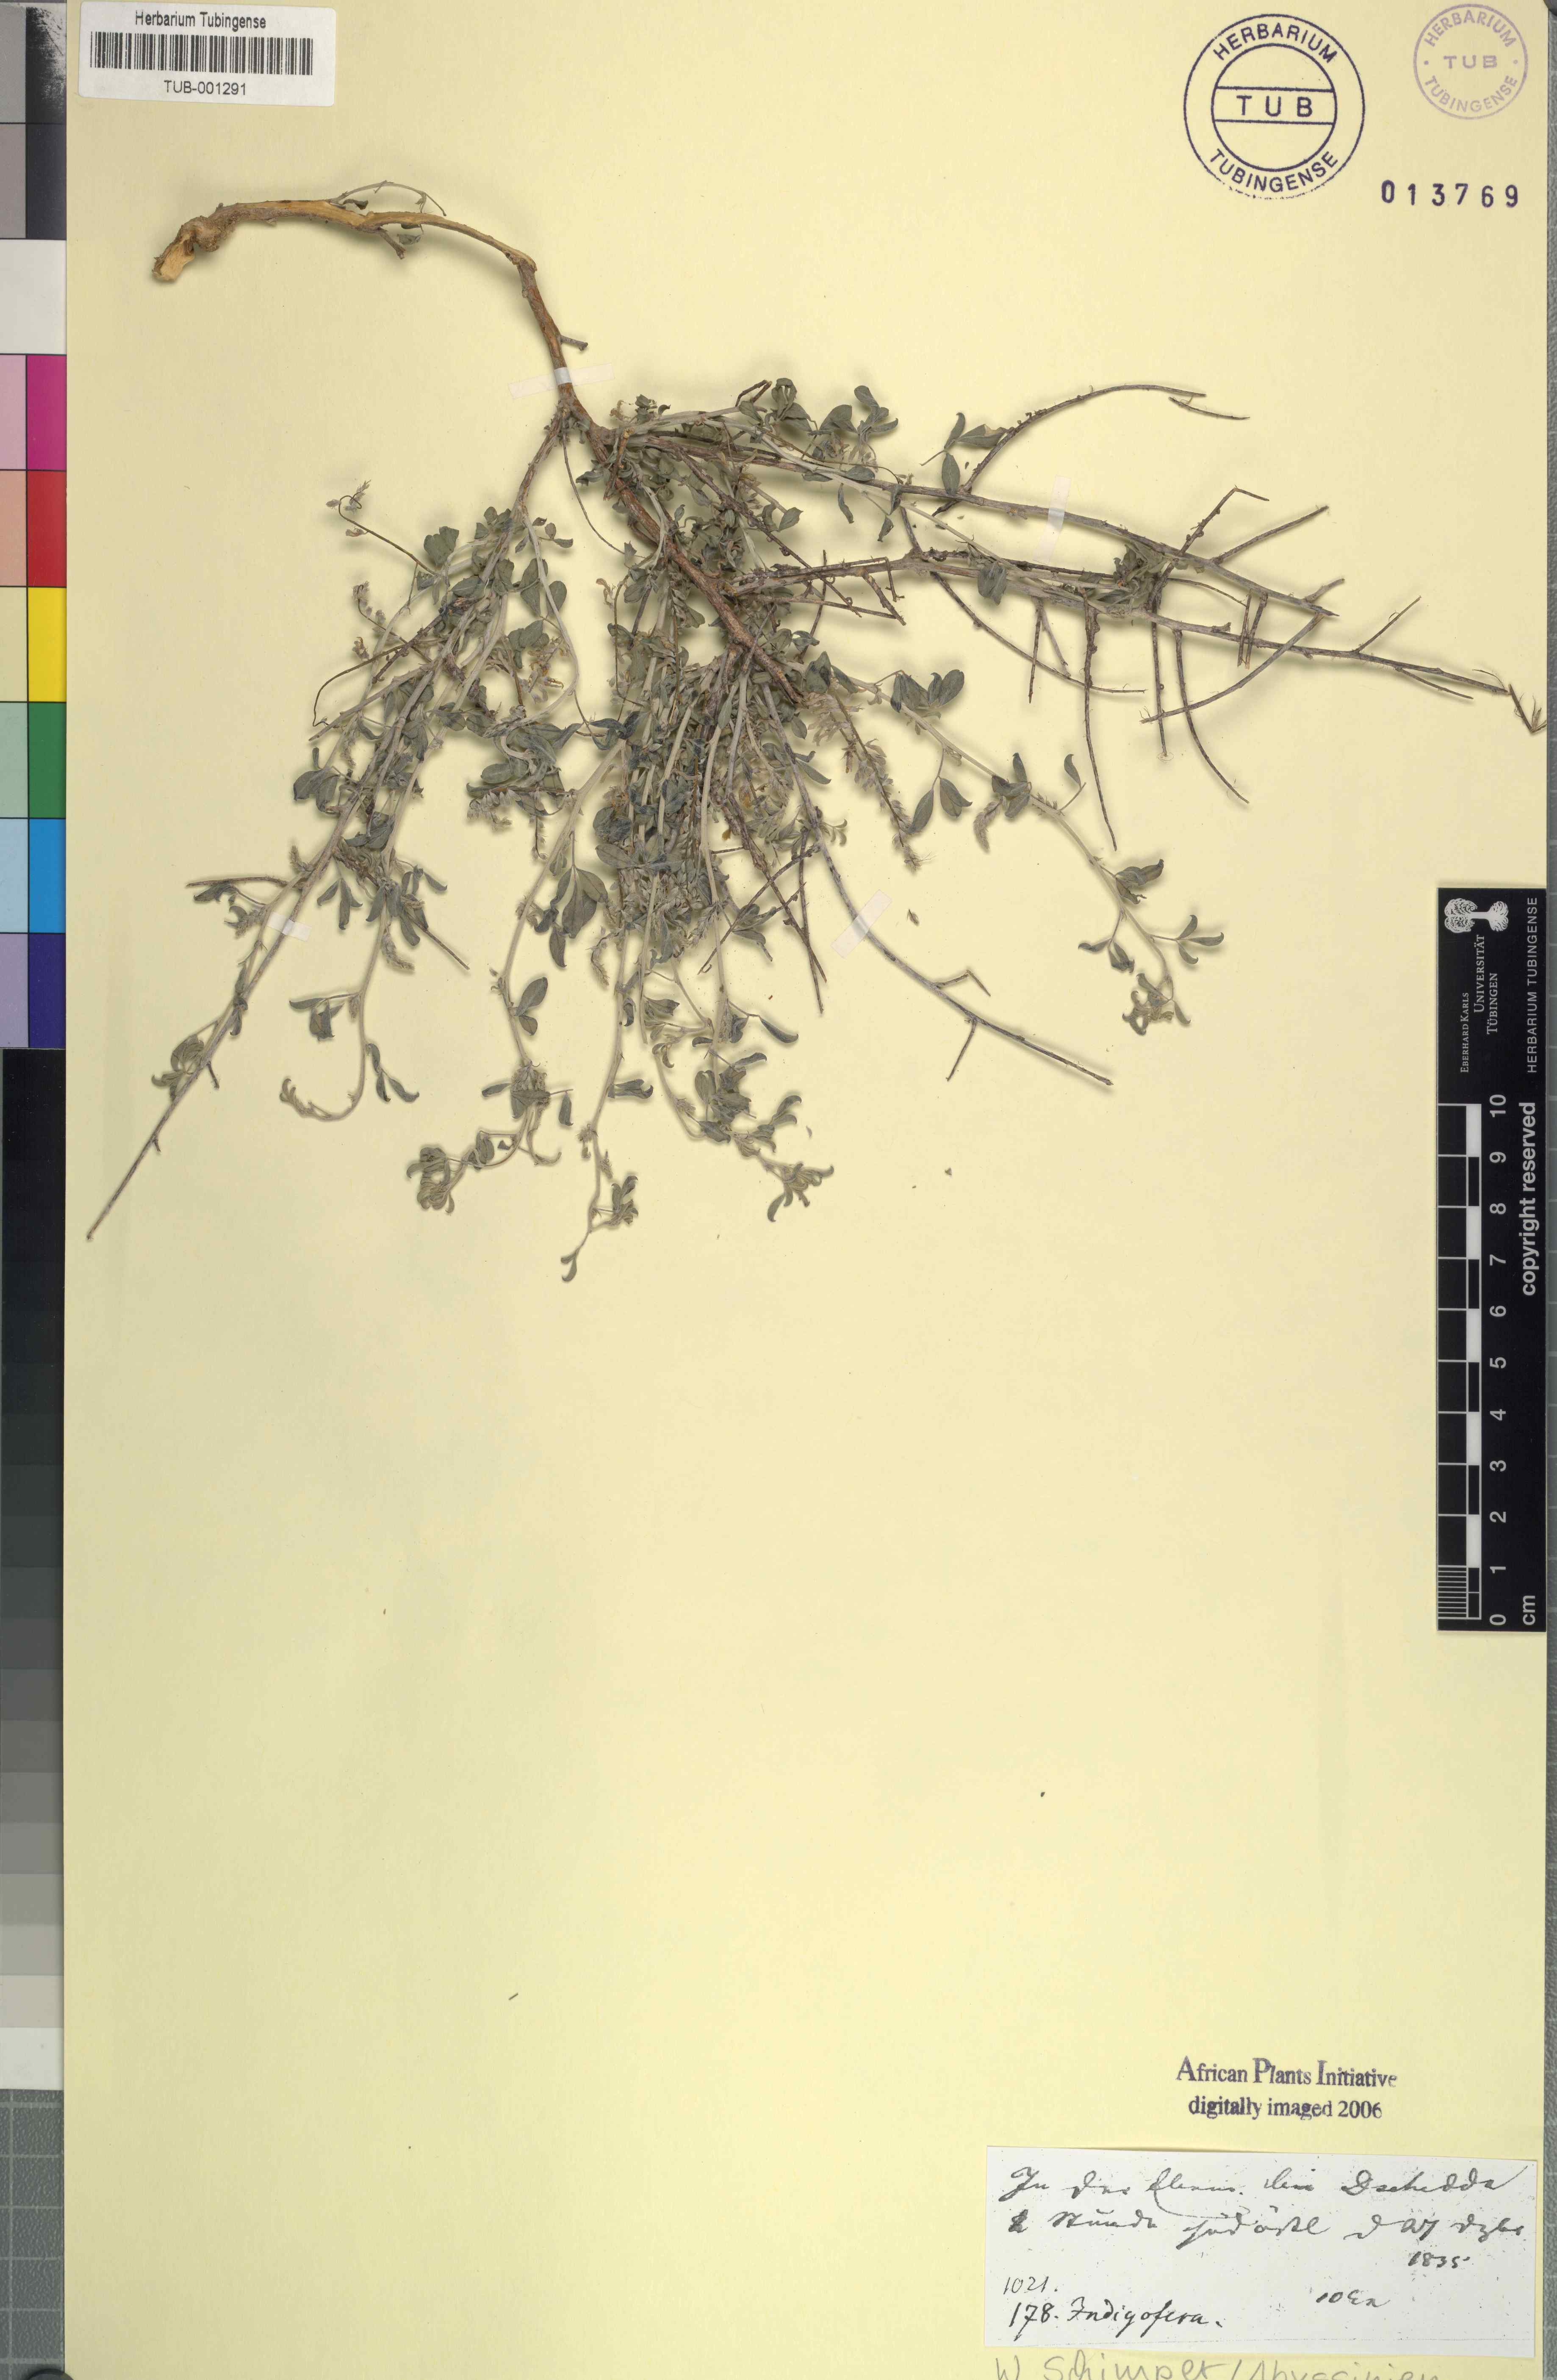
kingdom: Plantae
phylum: Tracheophyta
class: Magnoliopsida
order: Fabales
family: Fabaceae
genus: Indigofera
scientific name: Indigofera spiniflora
